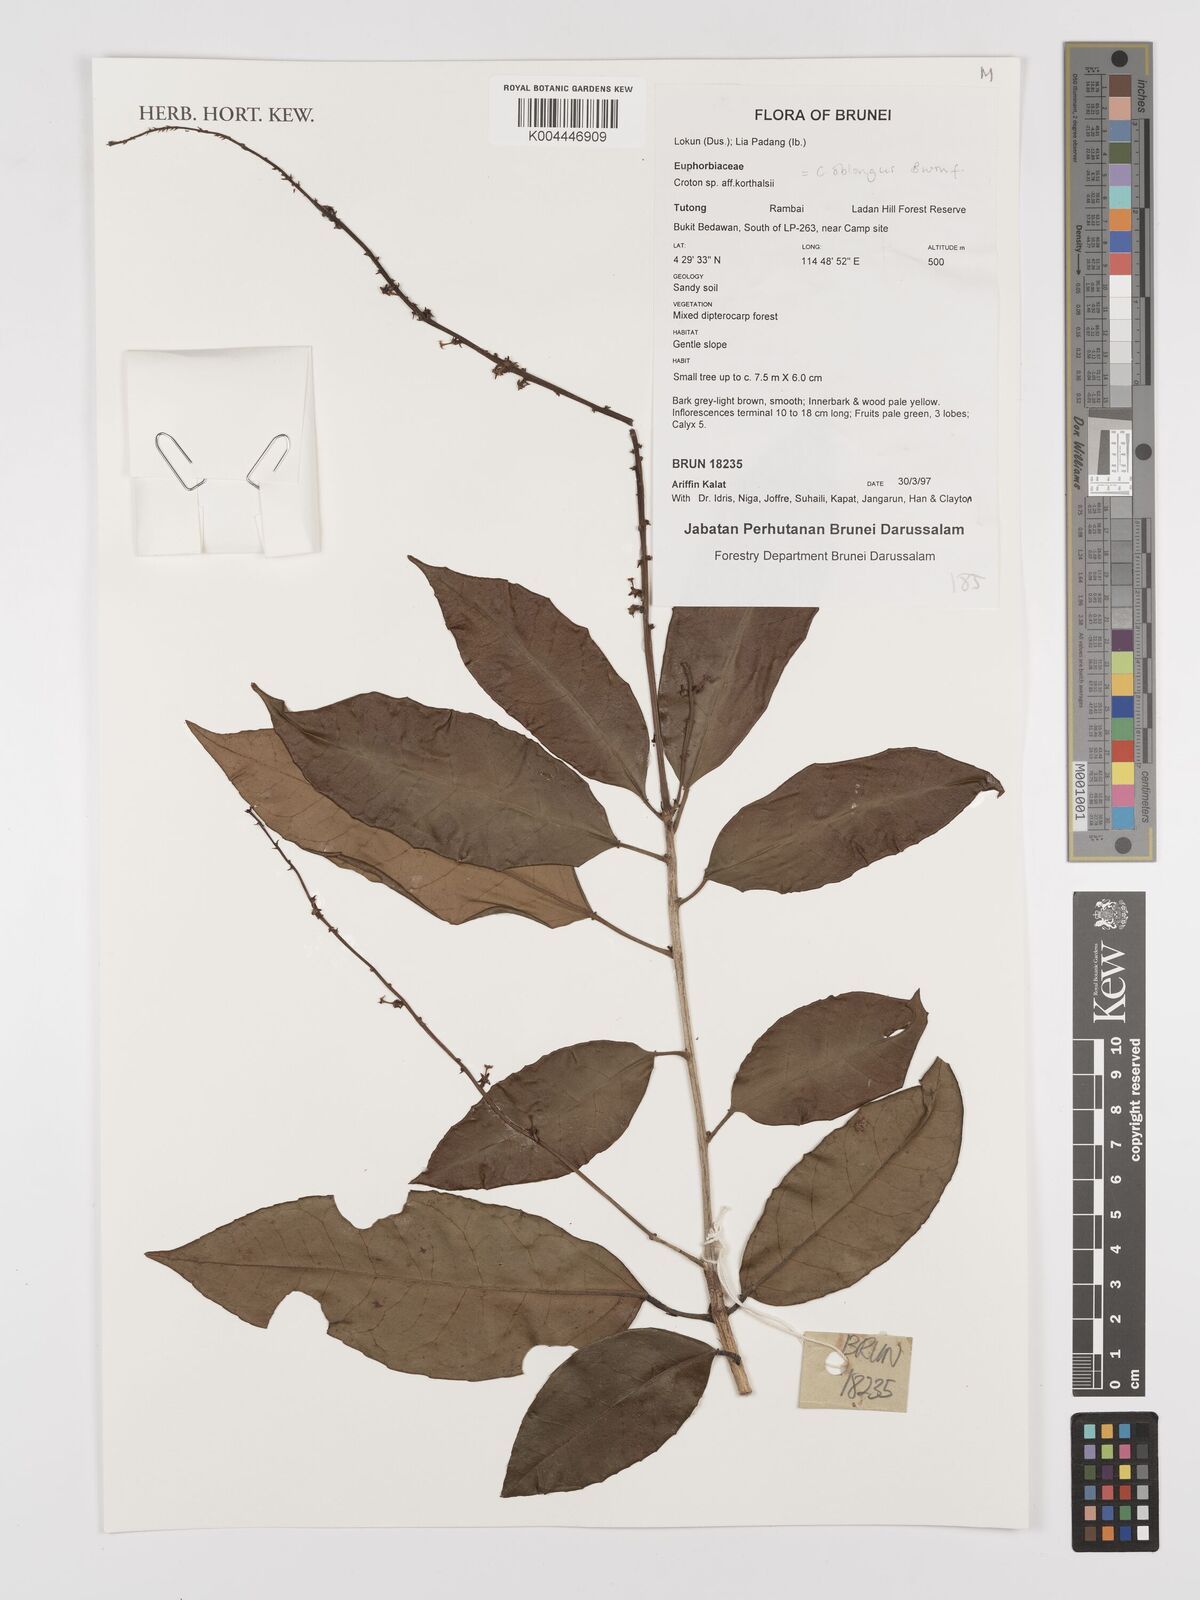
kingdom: Plantae
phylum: Tracheophyta
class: Magnoliopsida
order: Malpighiales
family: Euphorbiaceae
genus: Croton
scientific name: Croton oblongus
